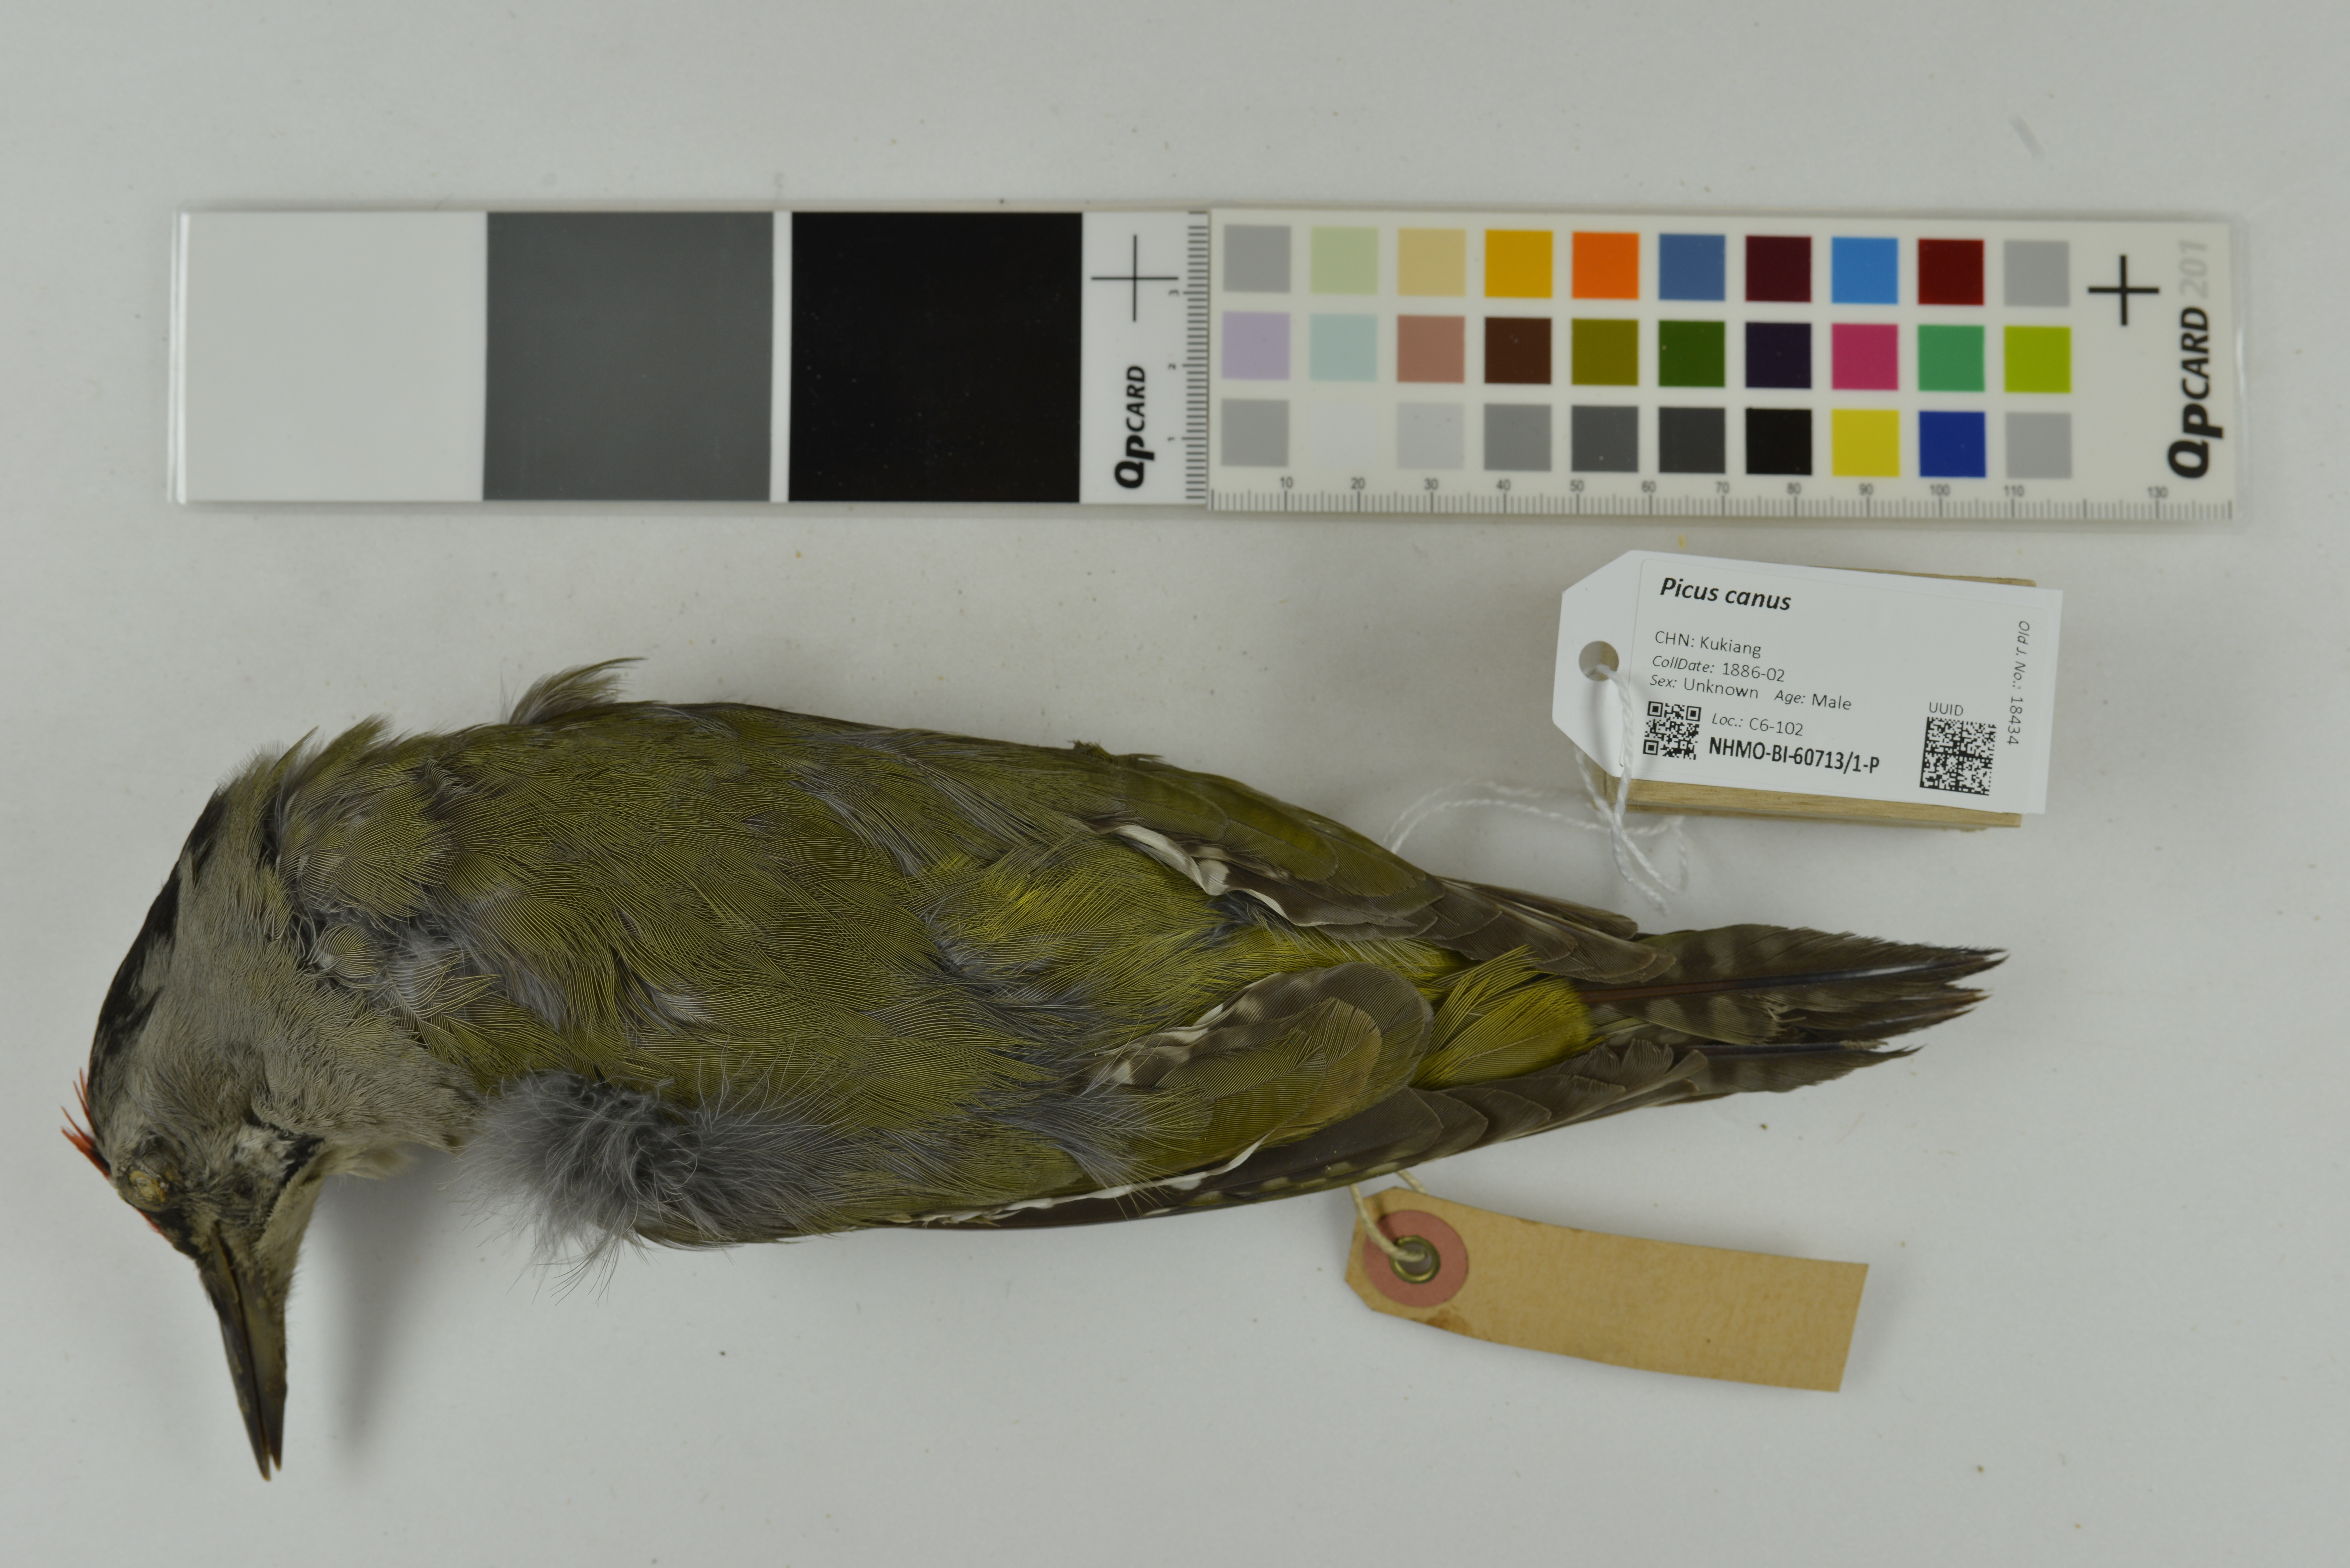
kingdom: Animalia
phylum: Chordata
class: Aves
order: Piciformes
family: Picidae
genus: Picus
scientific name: Picus canus
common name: Grey-headed woodpecker
